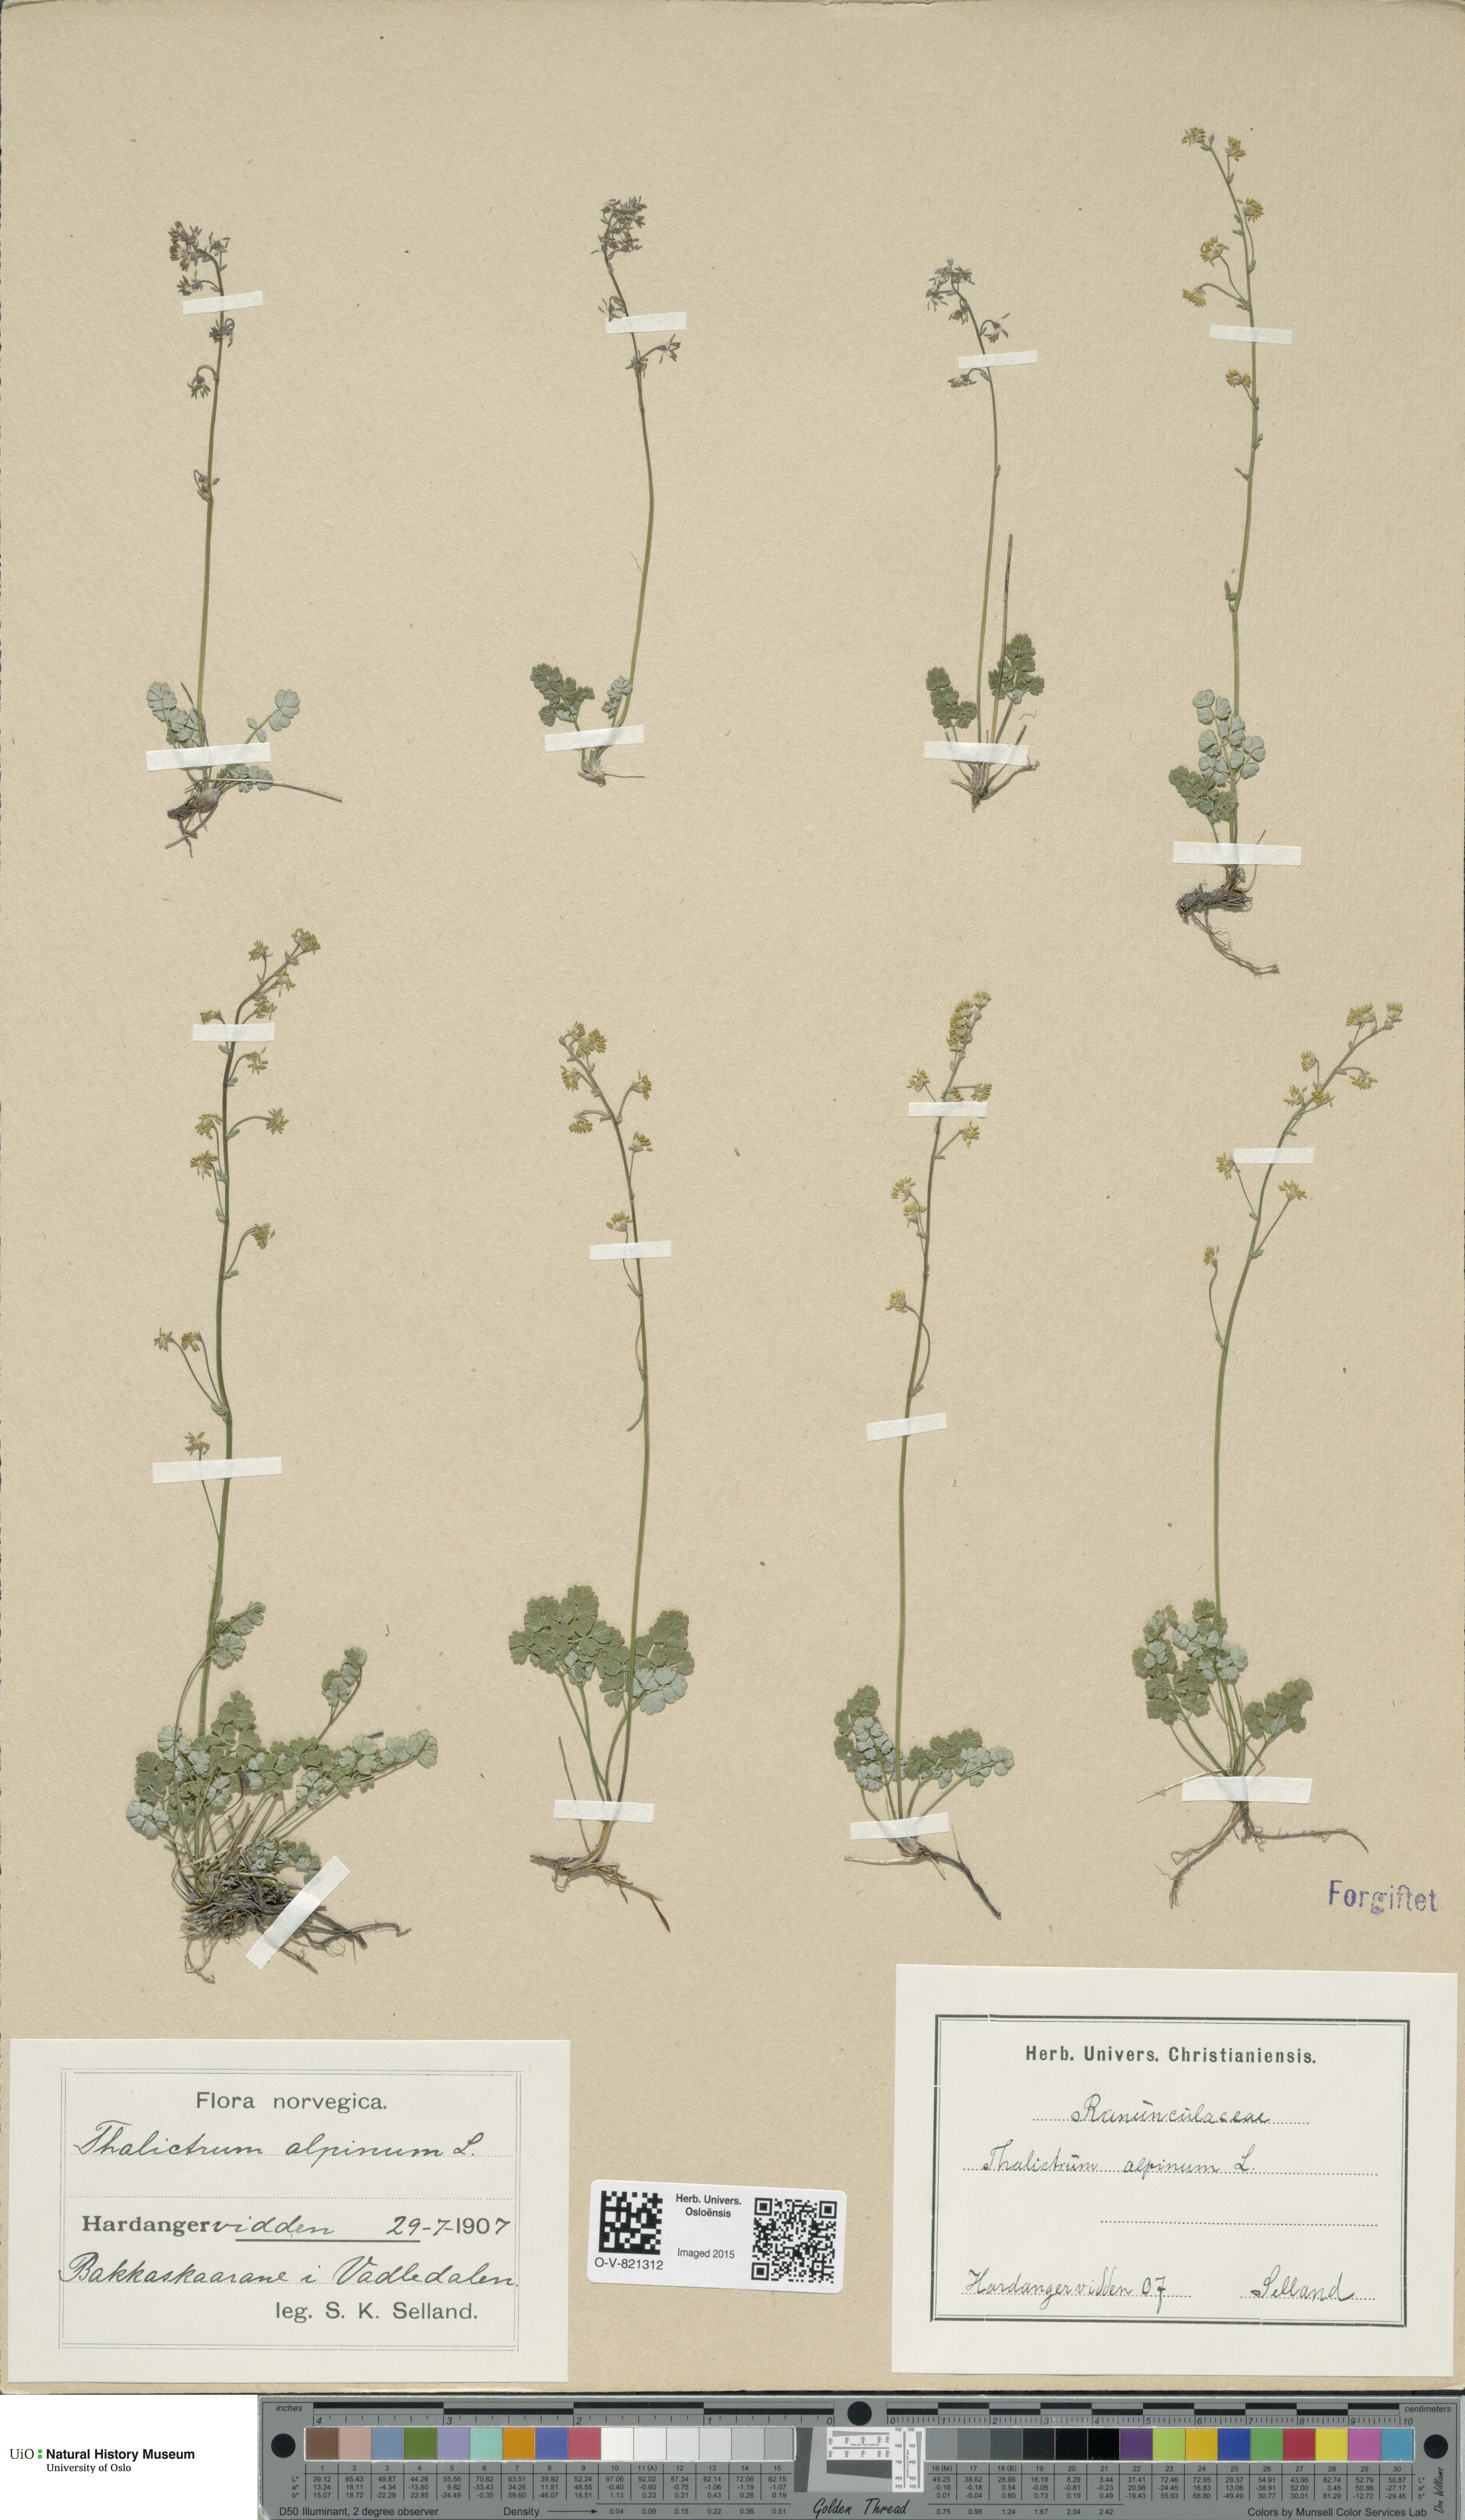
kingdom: Plantae
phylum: Tracheophyta
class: Magnoliopsida
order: Ranunculales
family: Ranunculaceae
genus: Thalictrum
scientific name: Thalictrum alpinum
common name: Alpine meadow-rue
